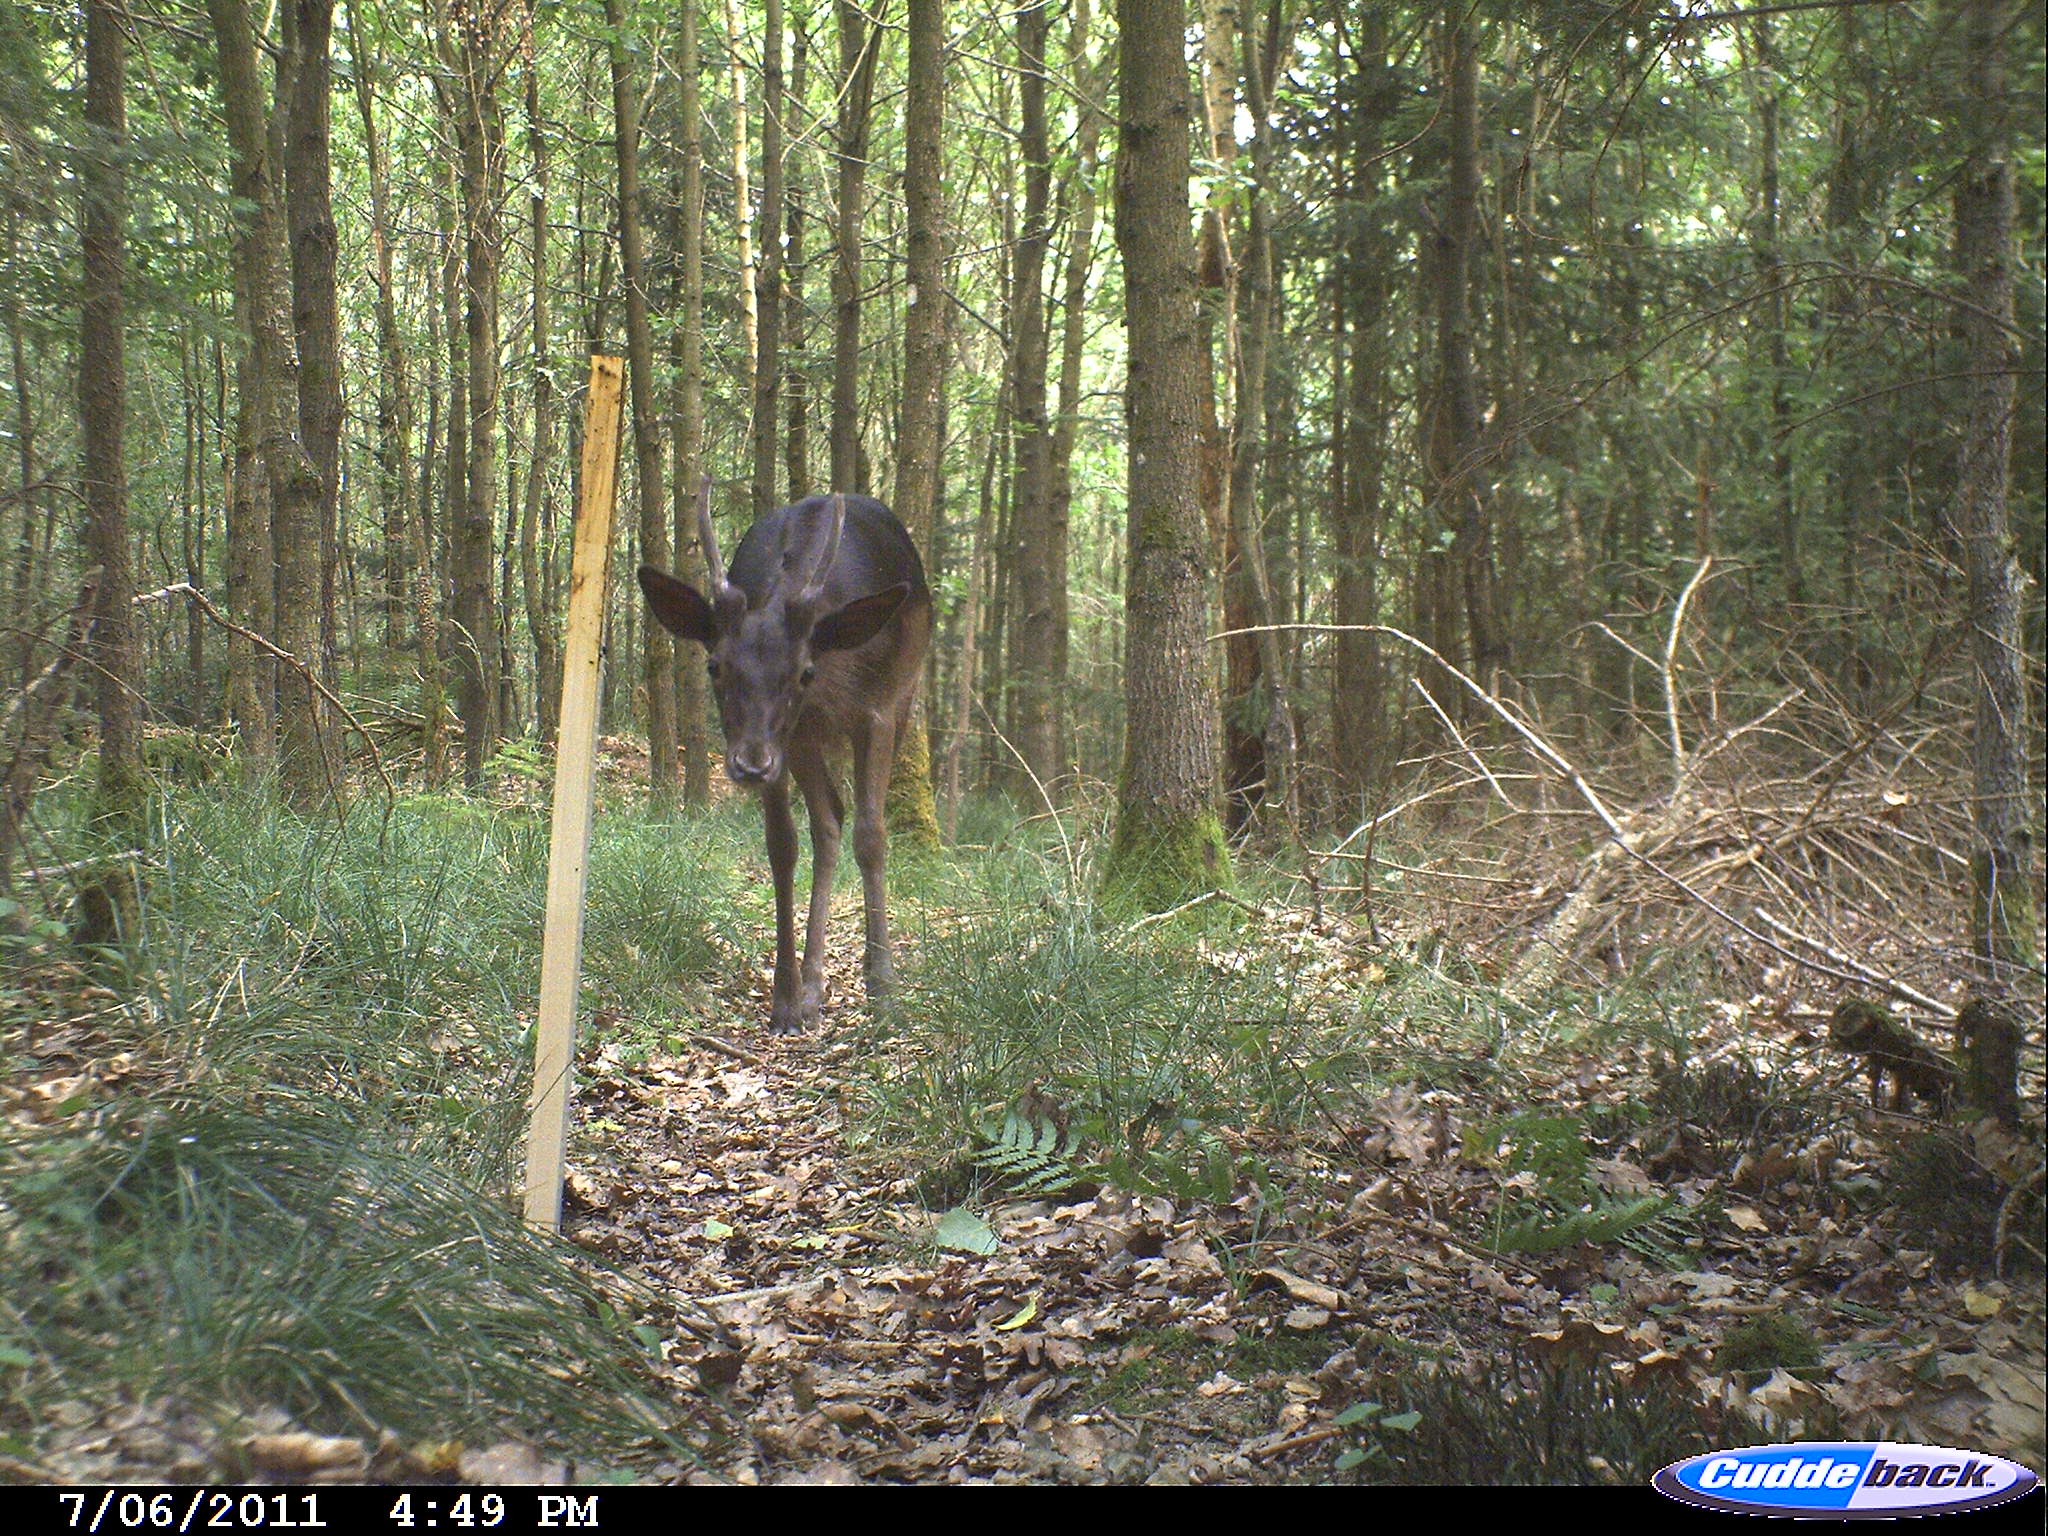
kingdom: Animalia
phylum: Chordata
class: Mammalia
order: Artiodactyla
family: Cervidae
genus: Cervus
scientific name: Cervus
